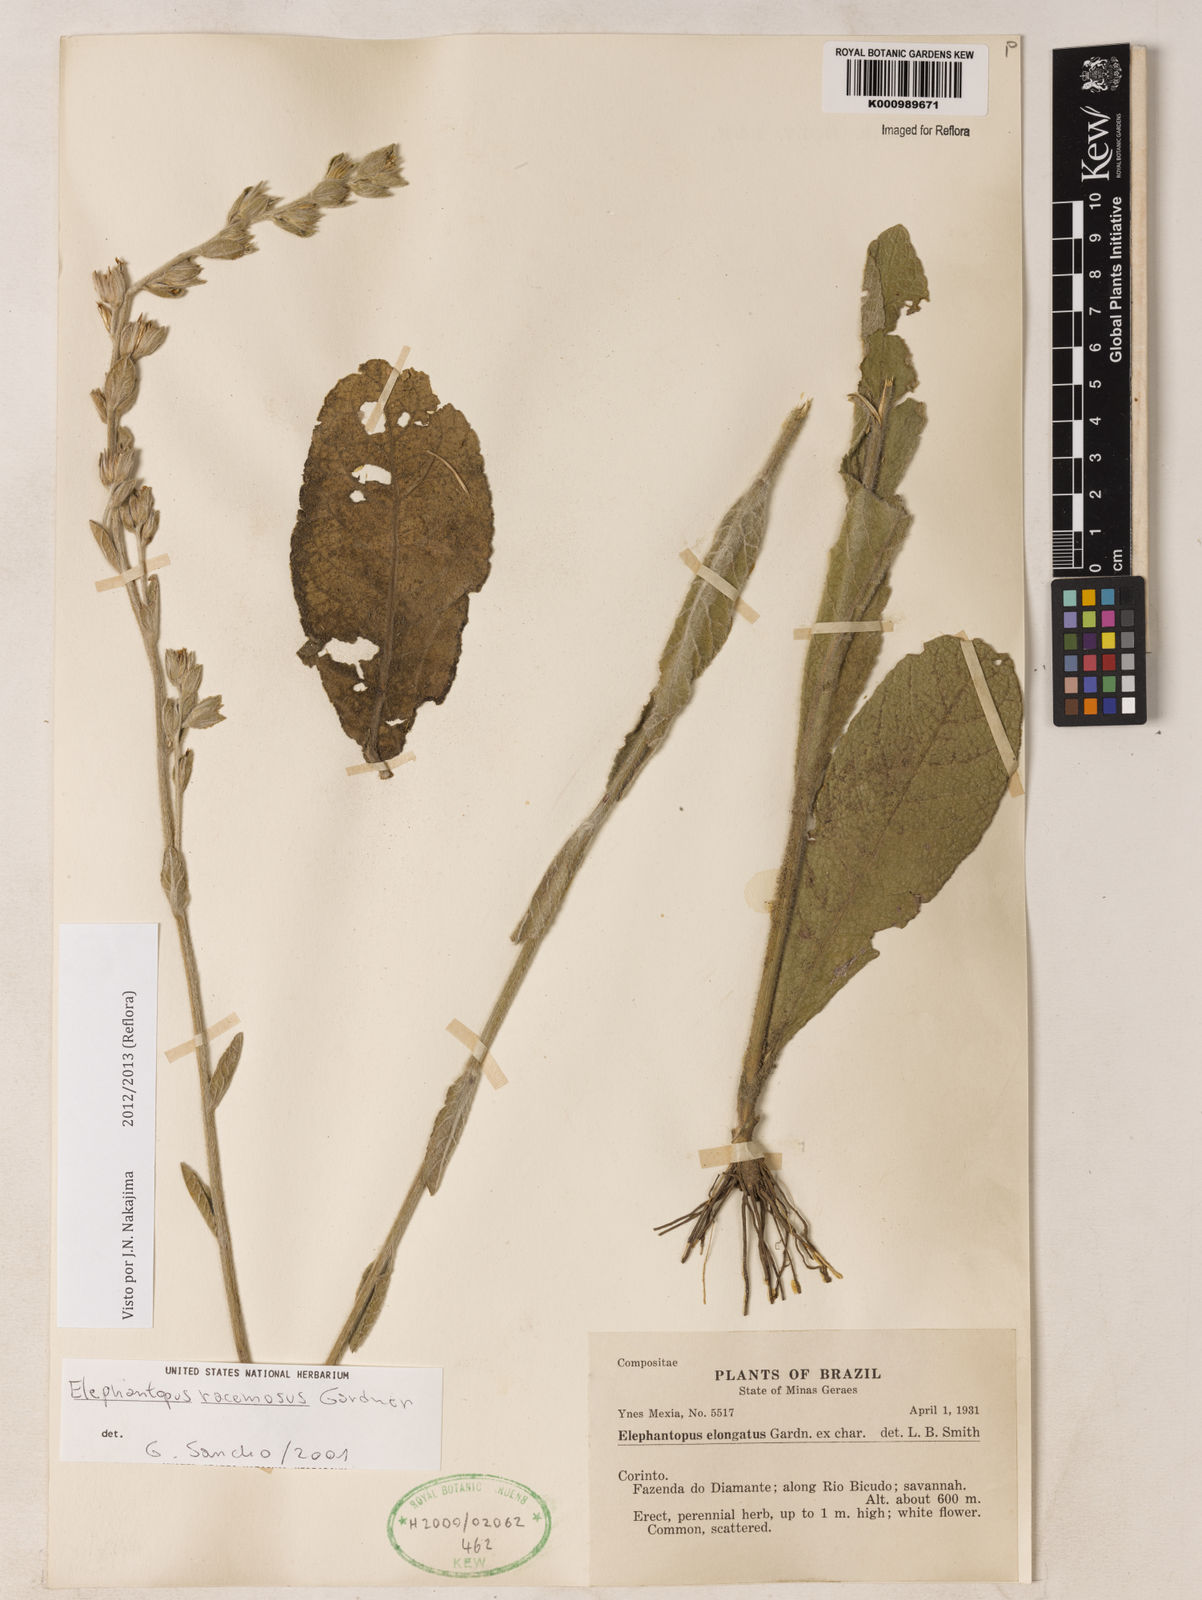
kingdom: Plantae
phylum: Tracheophyta
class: Magnoliopsida
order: Asterales
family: Asteraceae
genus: Elephantopus
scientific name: Elephantopus racemosus
